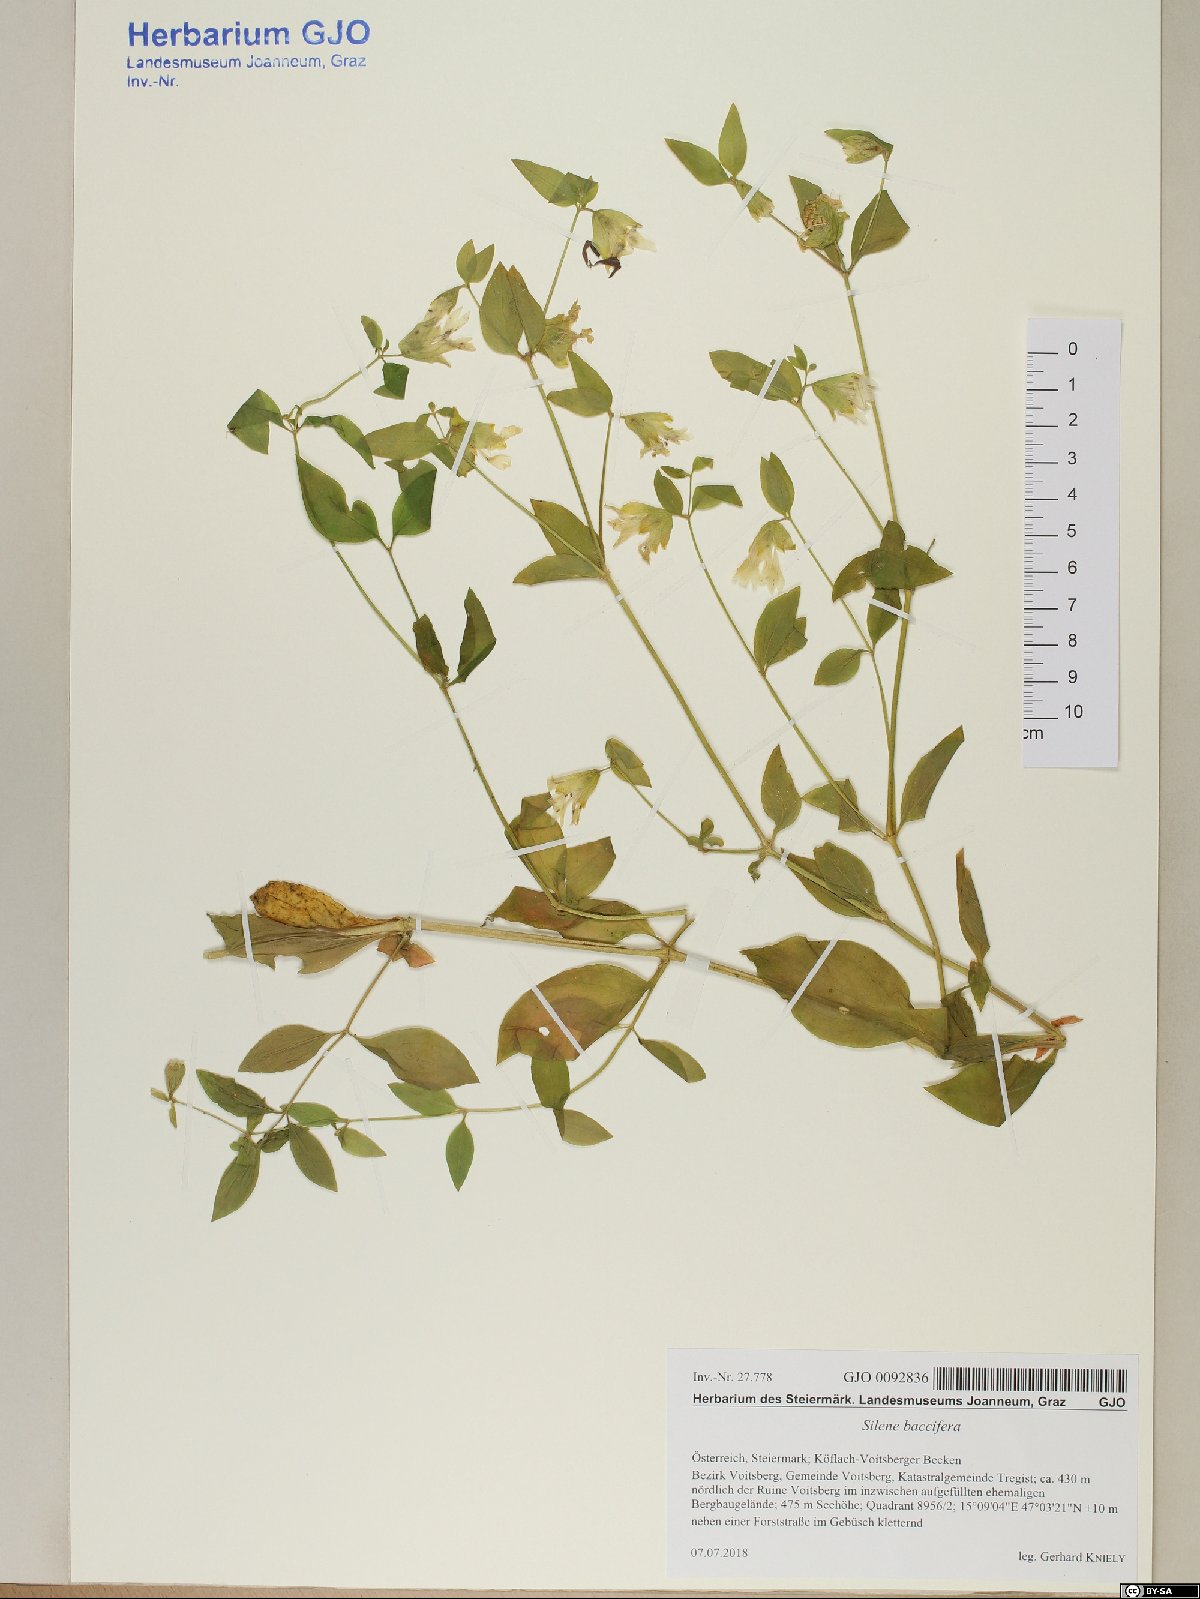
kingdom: Plantae
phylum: Tracheophyta
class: Magnoliopsida
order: Caryophyllales
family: Caryophyllaceae
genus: Silene
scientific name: Silene baccifera
